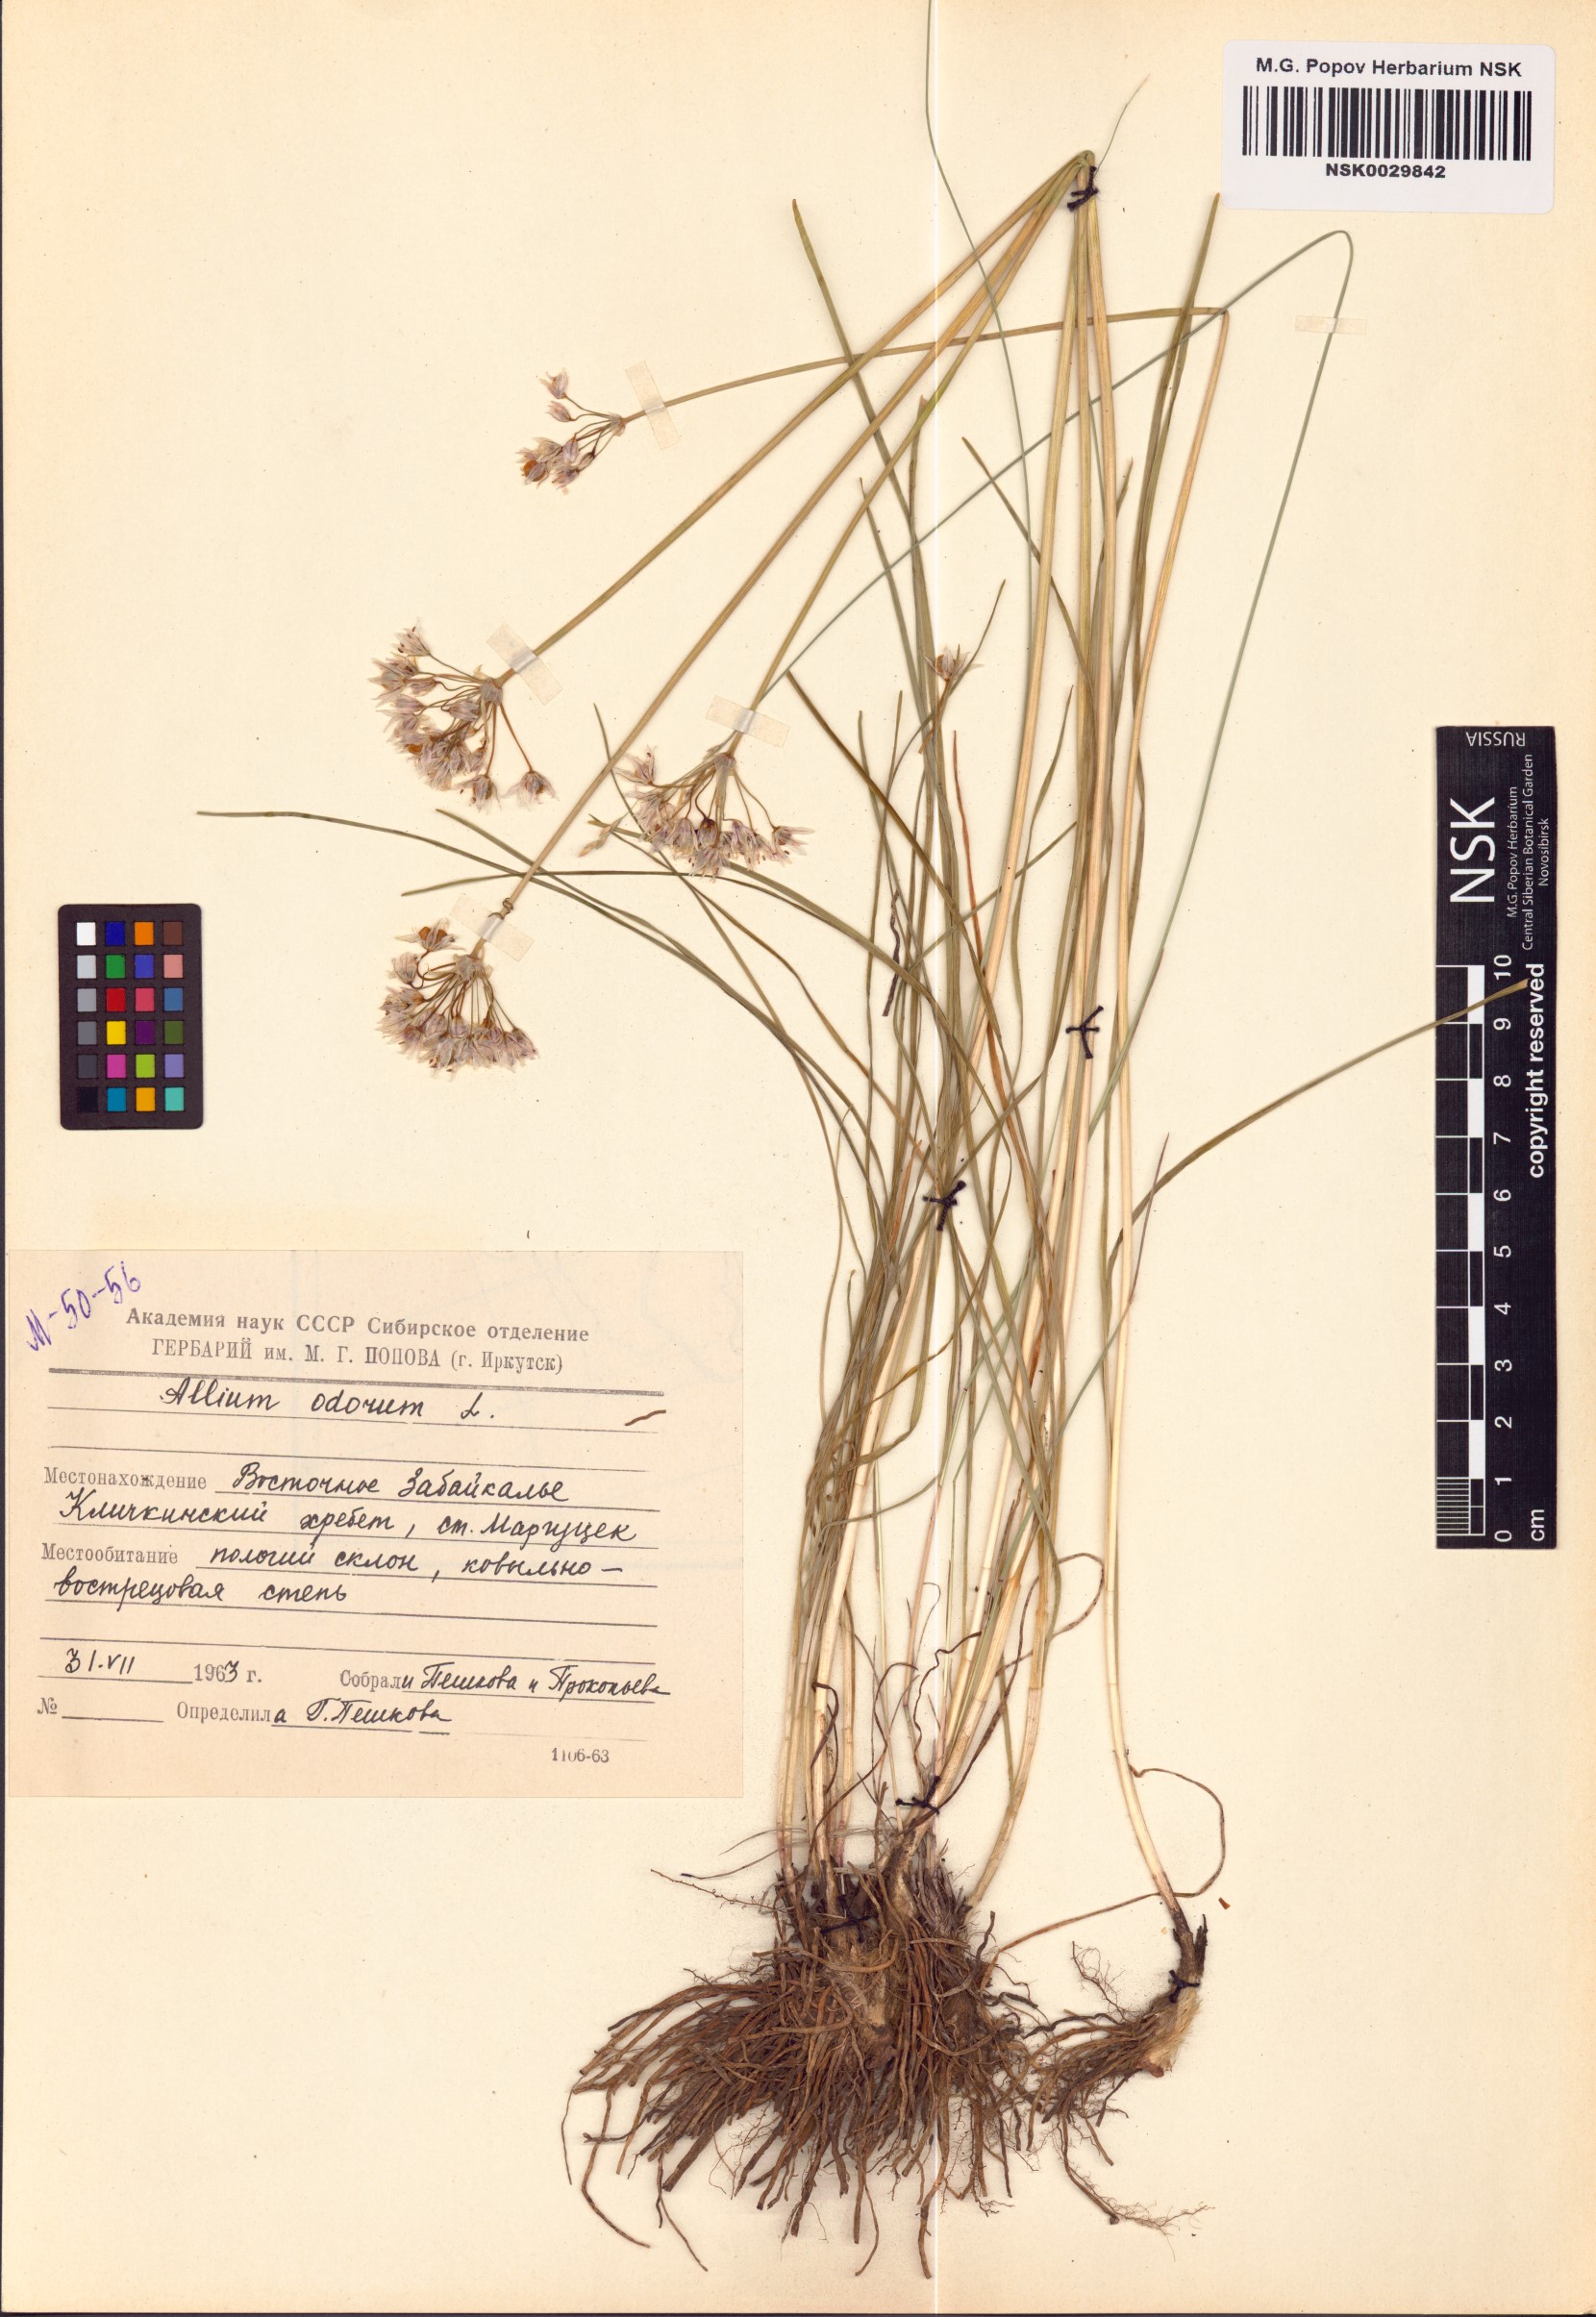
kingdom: Plantae
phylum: Tracheophyta
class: Liliopsida
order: Asparagales
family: Amaryllidaceae
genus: Allium
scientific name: Allium ramosum
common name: Fragrant garlic
